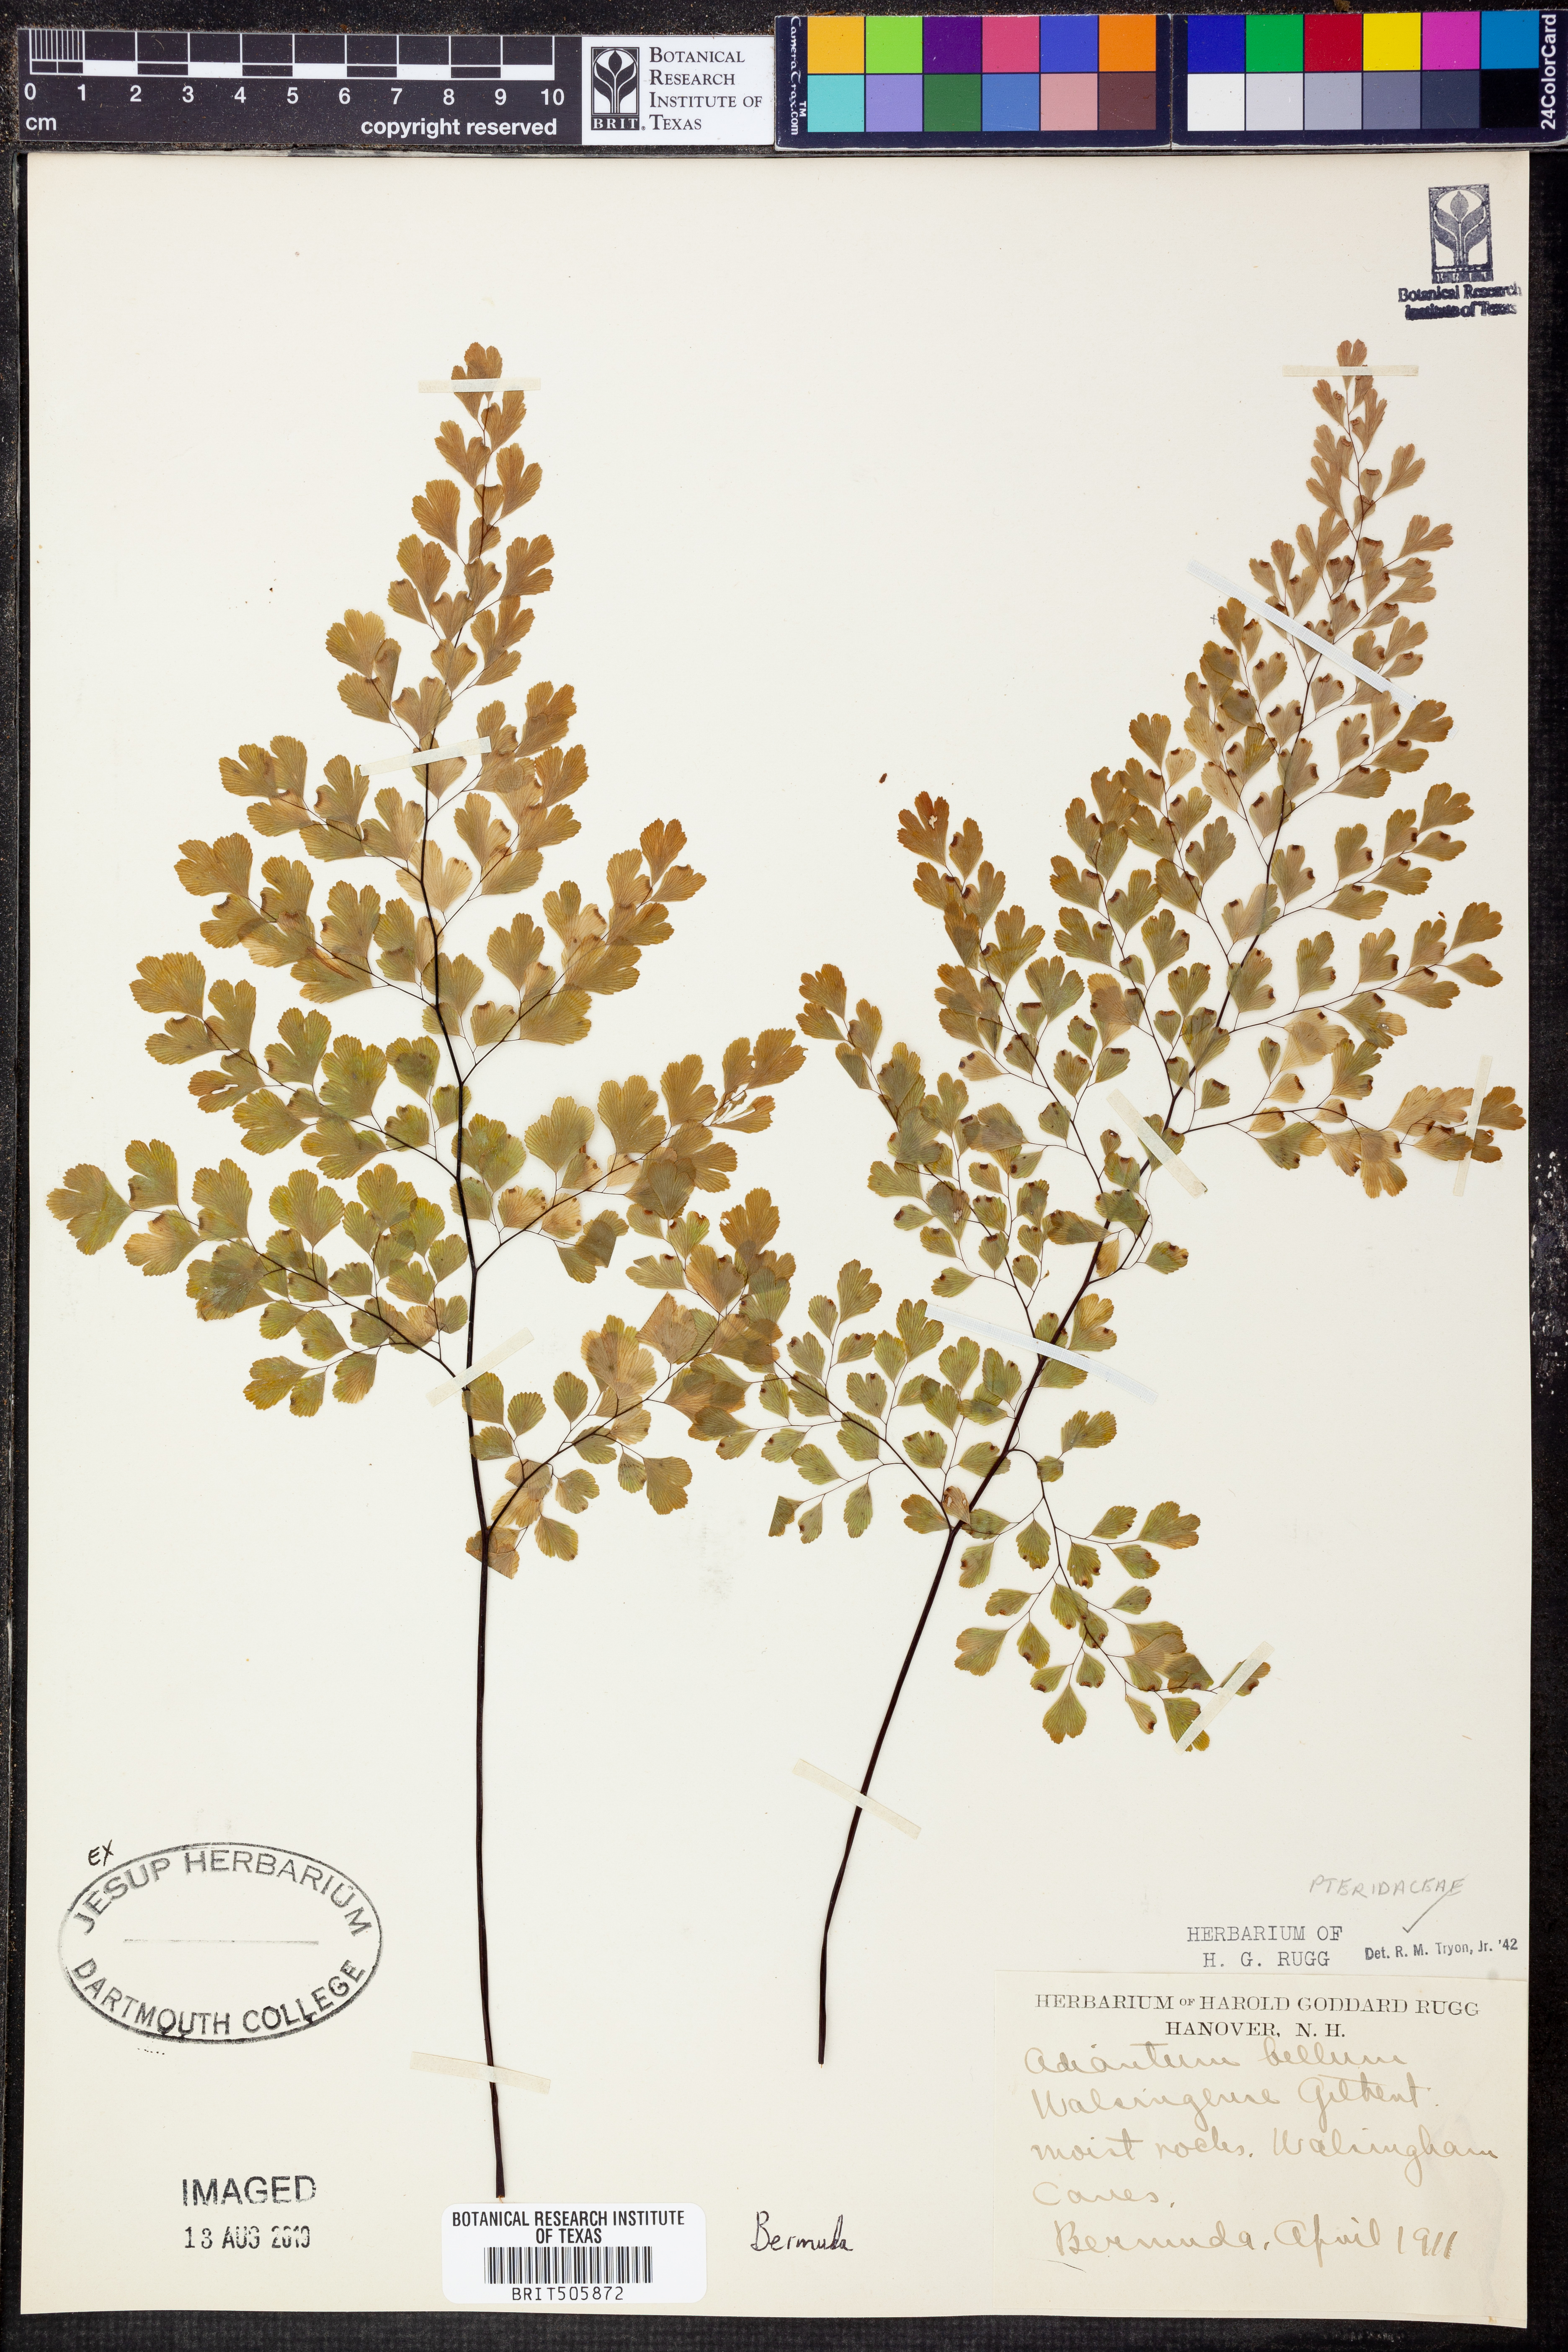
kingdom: Plantae
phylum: Tracheophyta
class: Polypodiopsida
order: Polypodiales
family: Pteridaceae
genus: Adiantum
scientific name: Adiantum bellum
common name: Bermuda maidenhair fern
